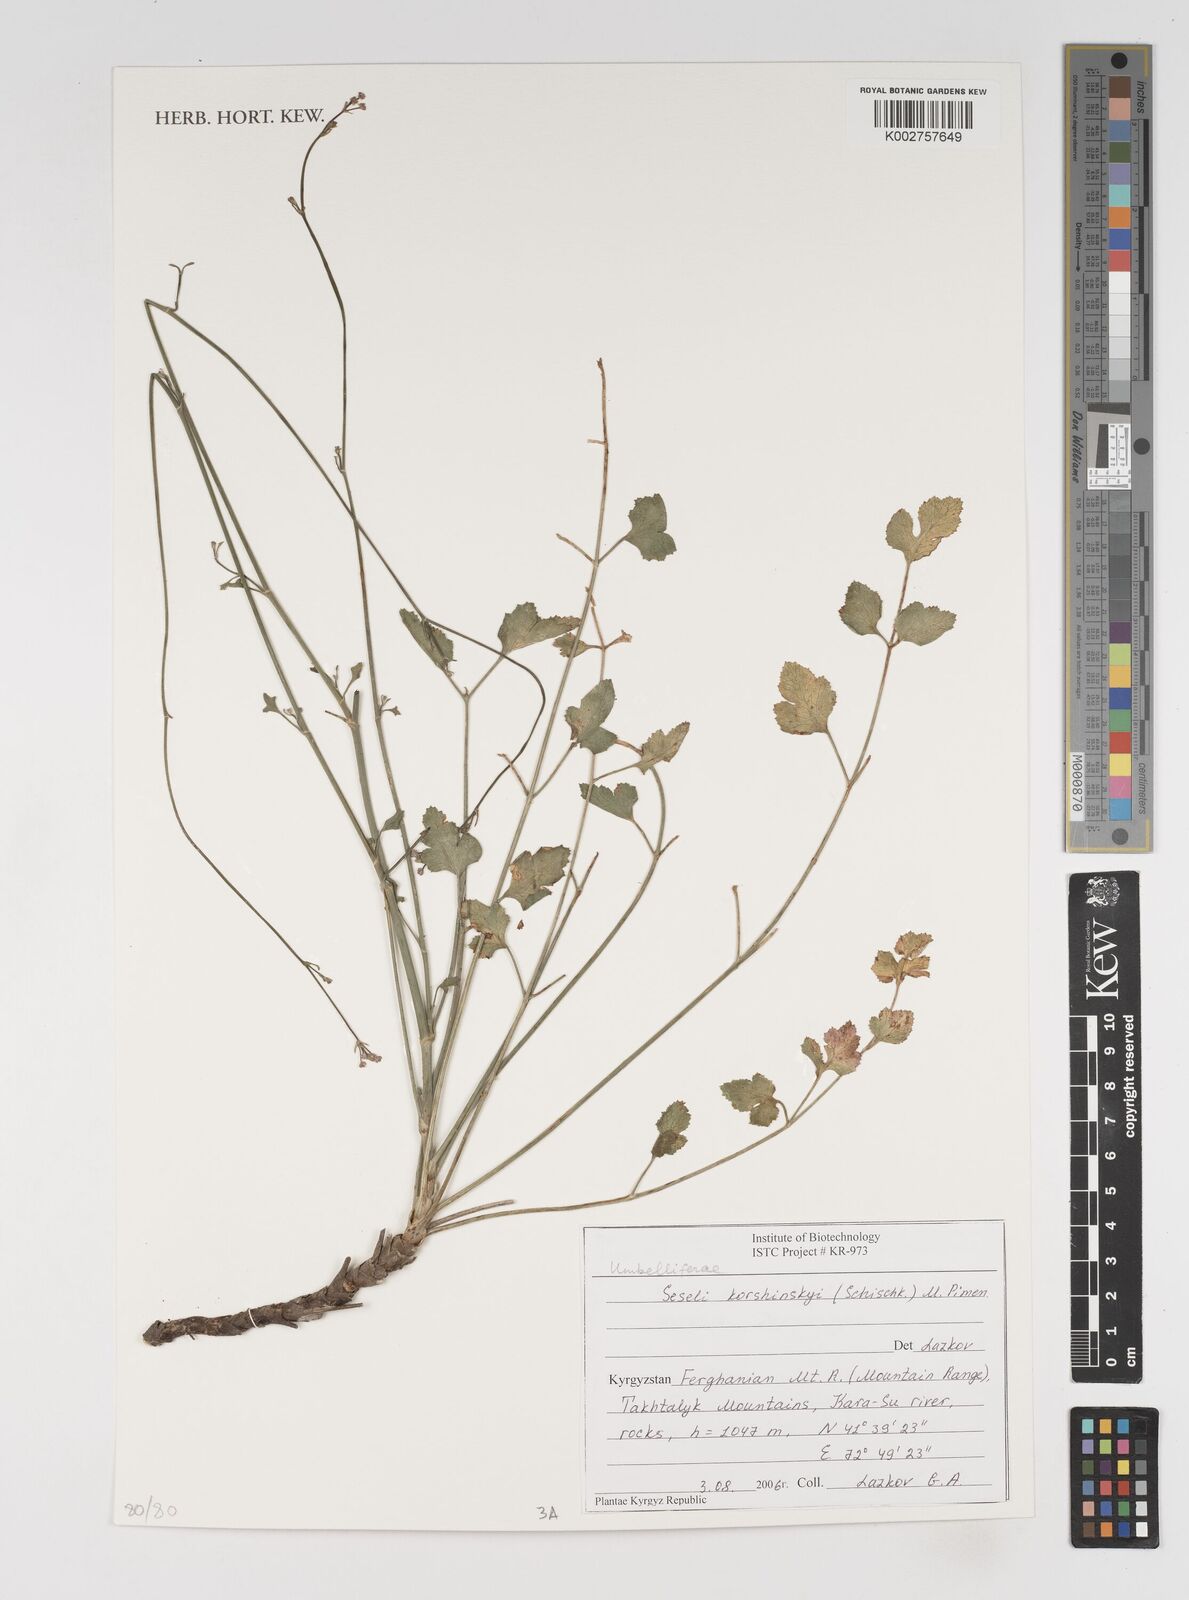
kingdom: Plantae
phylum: Tracheophyta
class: Magnoliopsida
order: Apiales
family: Apiaceae
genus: Seseli
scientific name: Seseli korshinskyi
